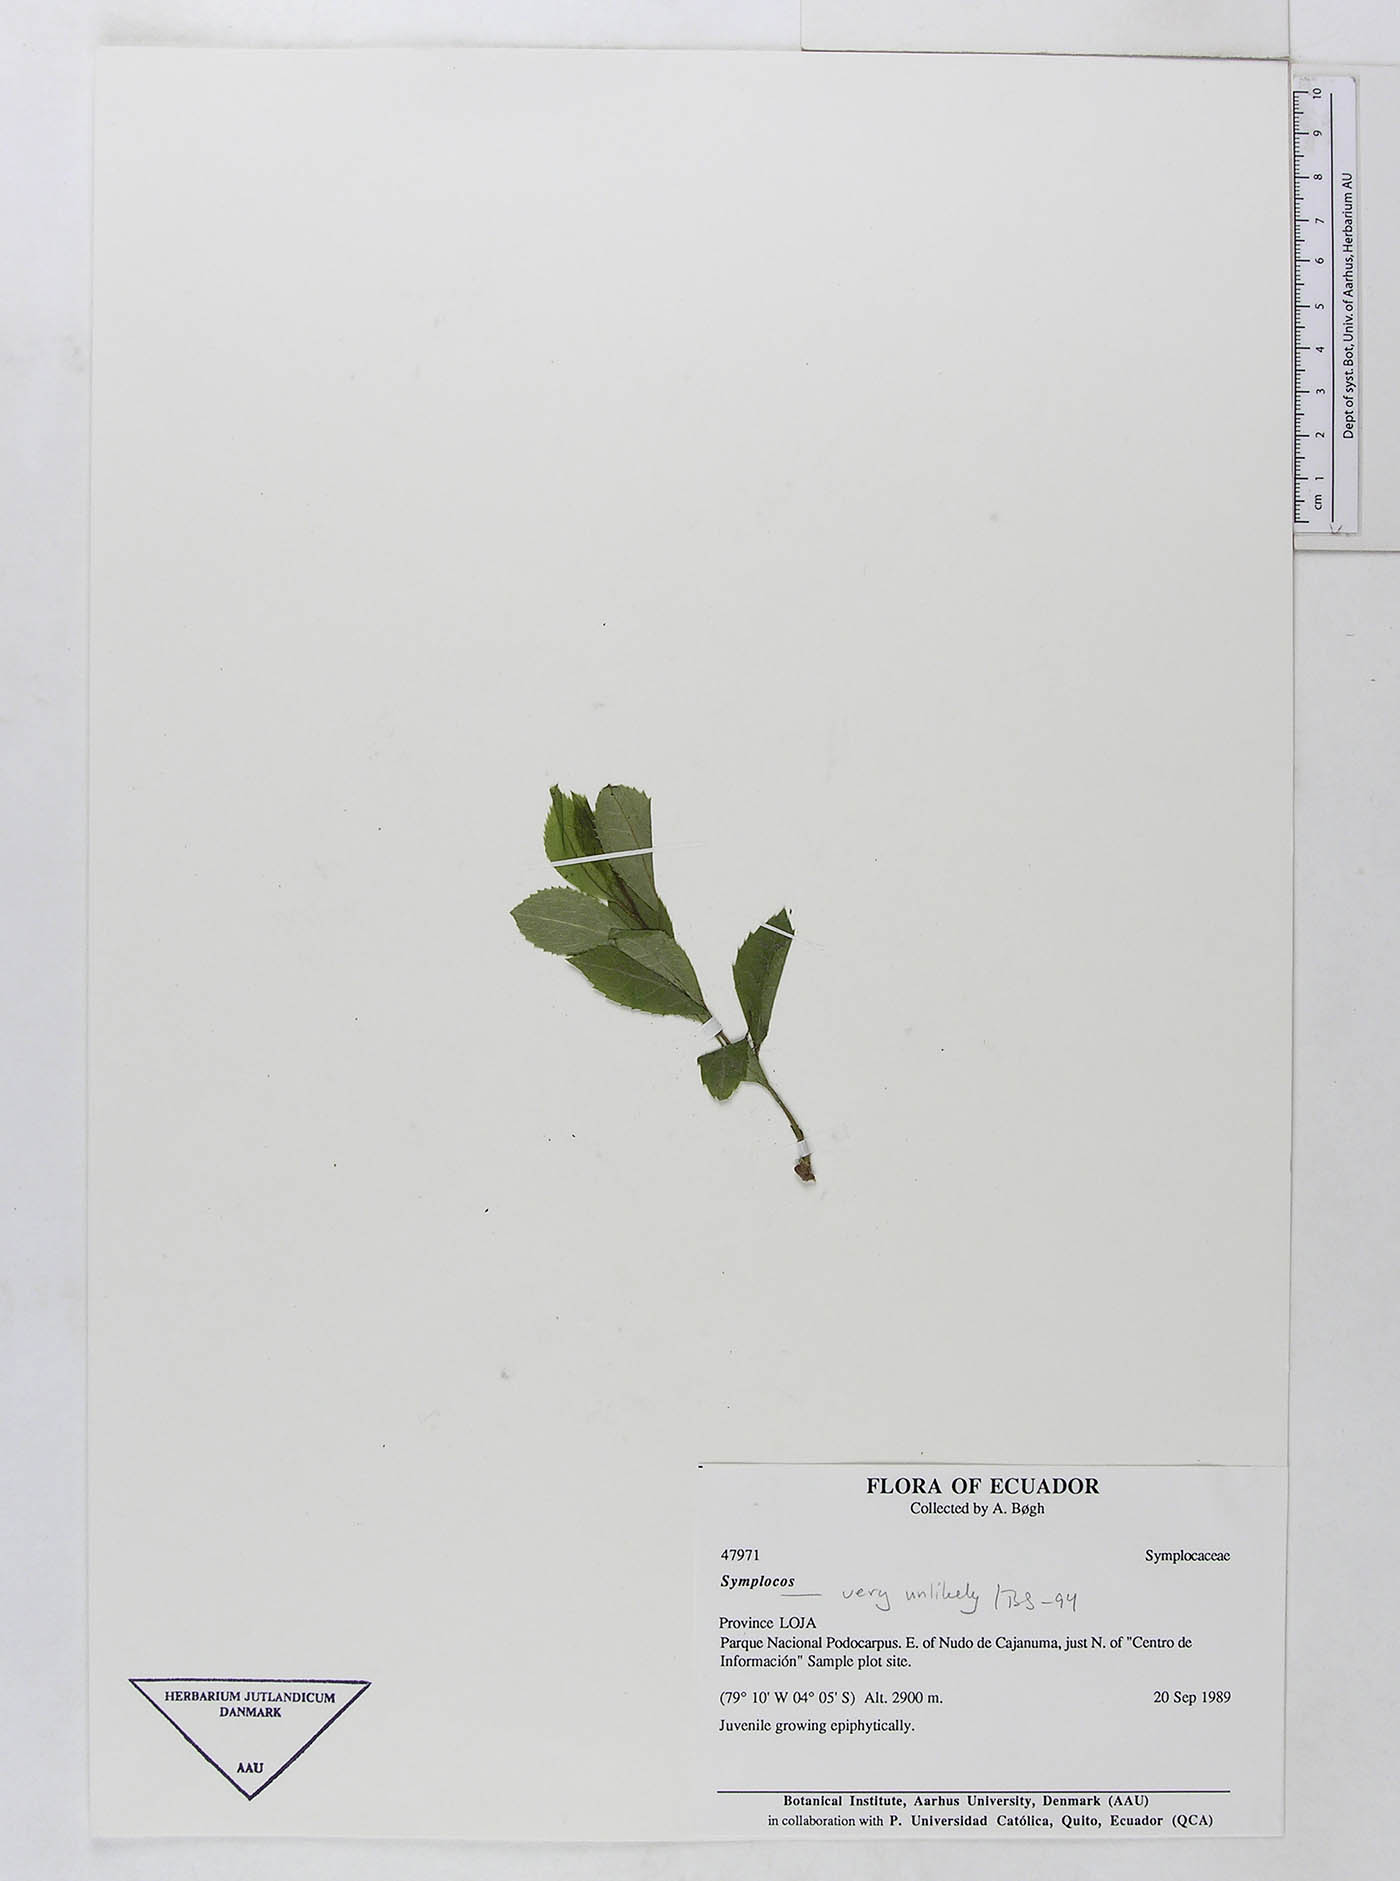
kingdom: Plantae
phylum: Tracheophyta
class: Magnoliopsida
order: Ericales
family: Symplocaceae
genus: Symplocos
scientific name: Symplocos
